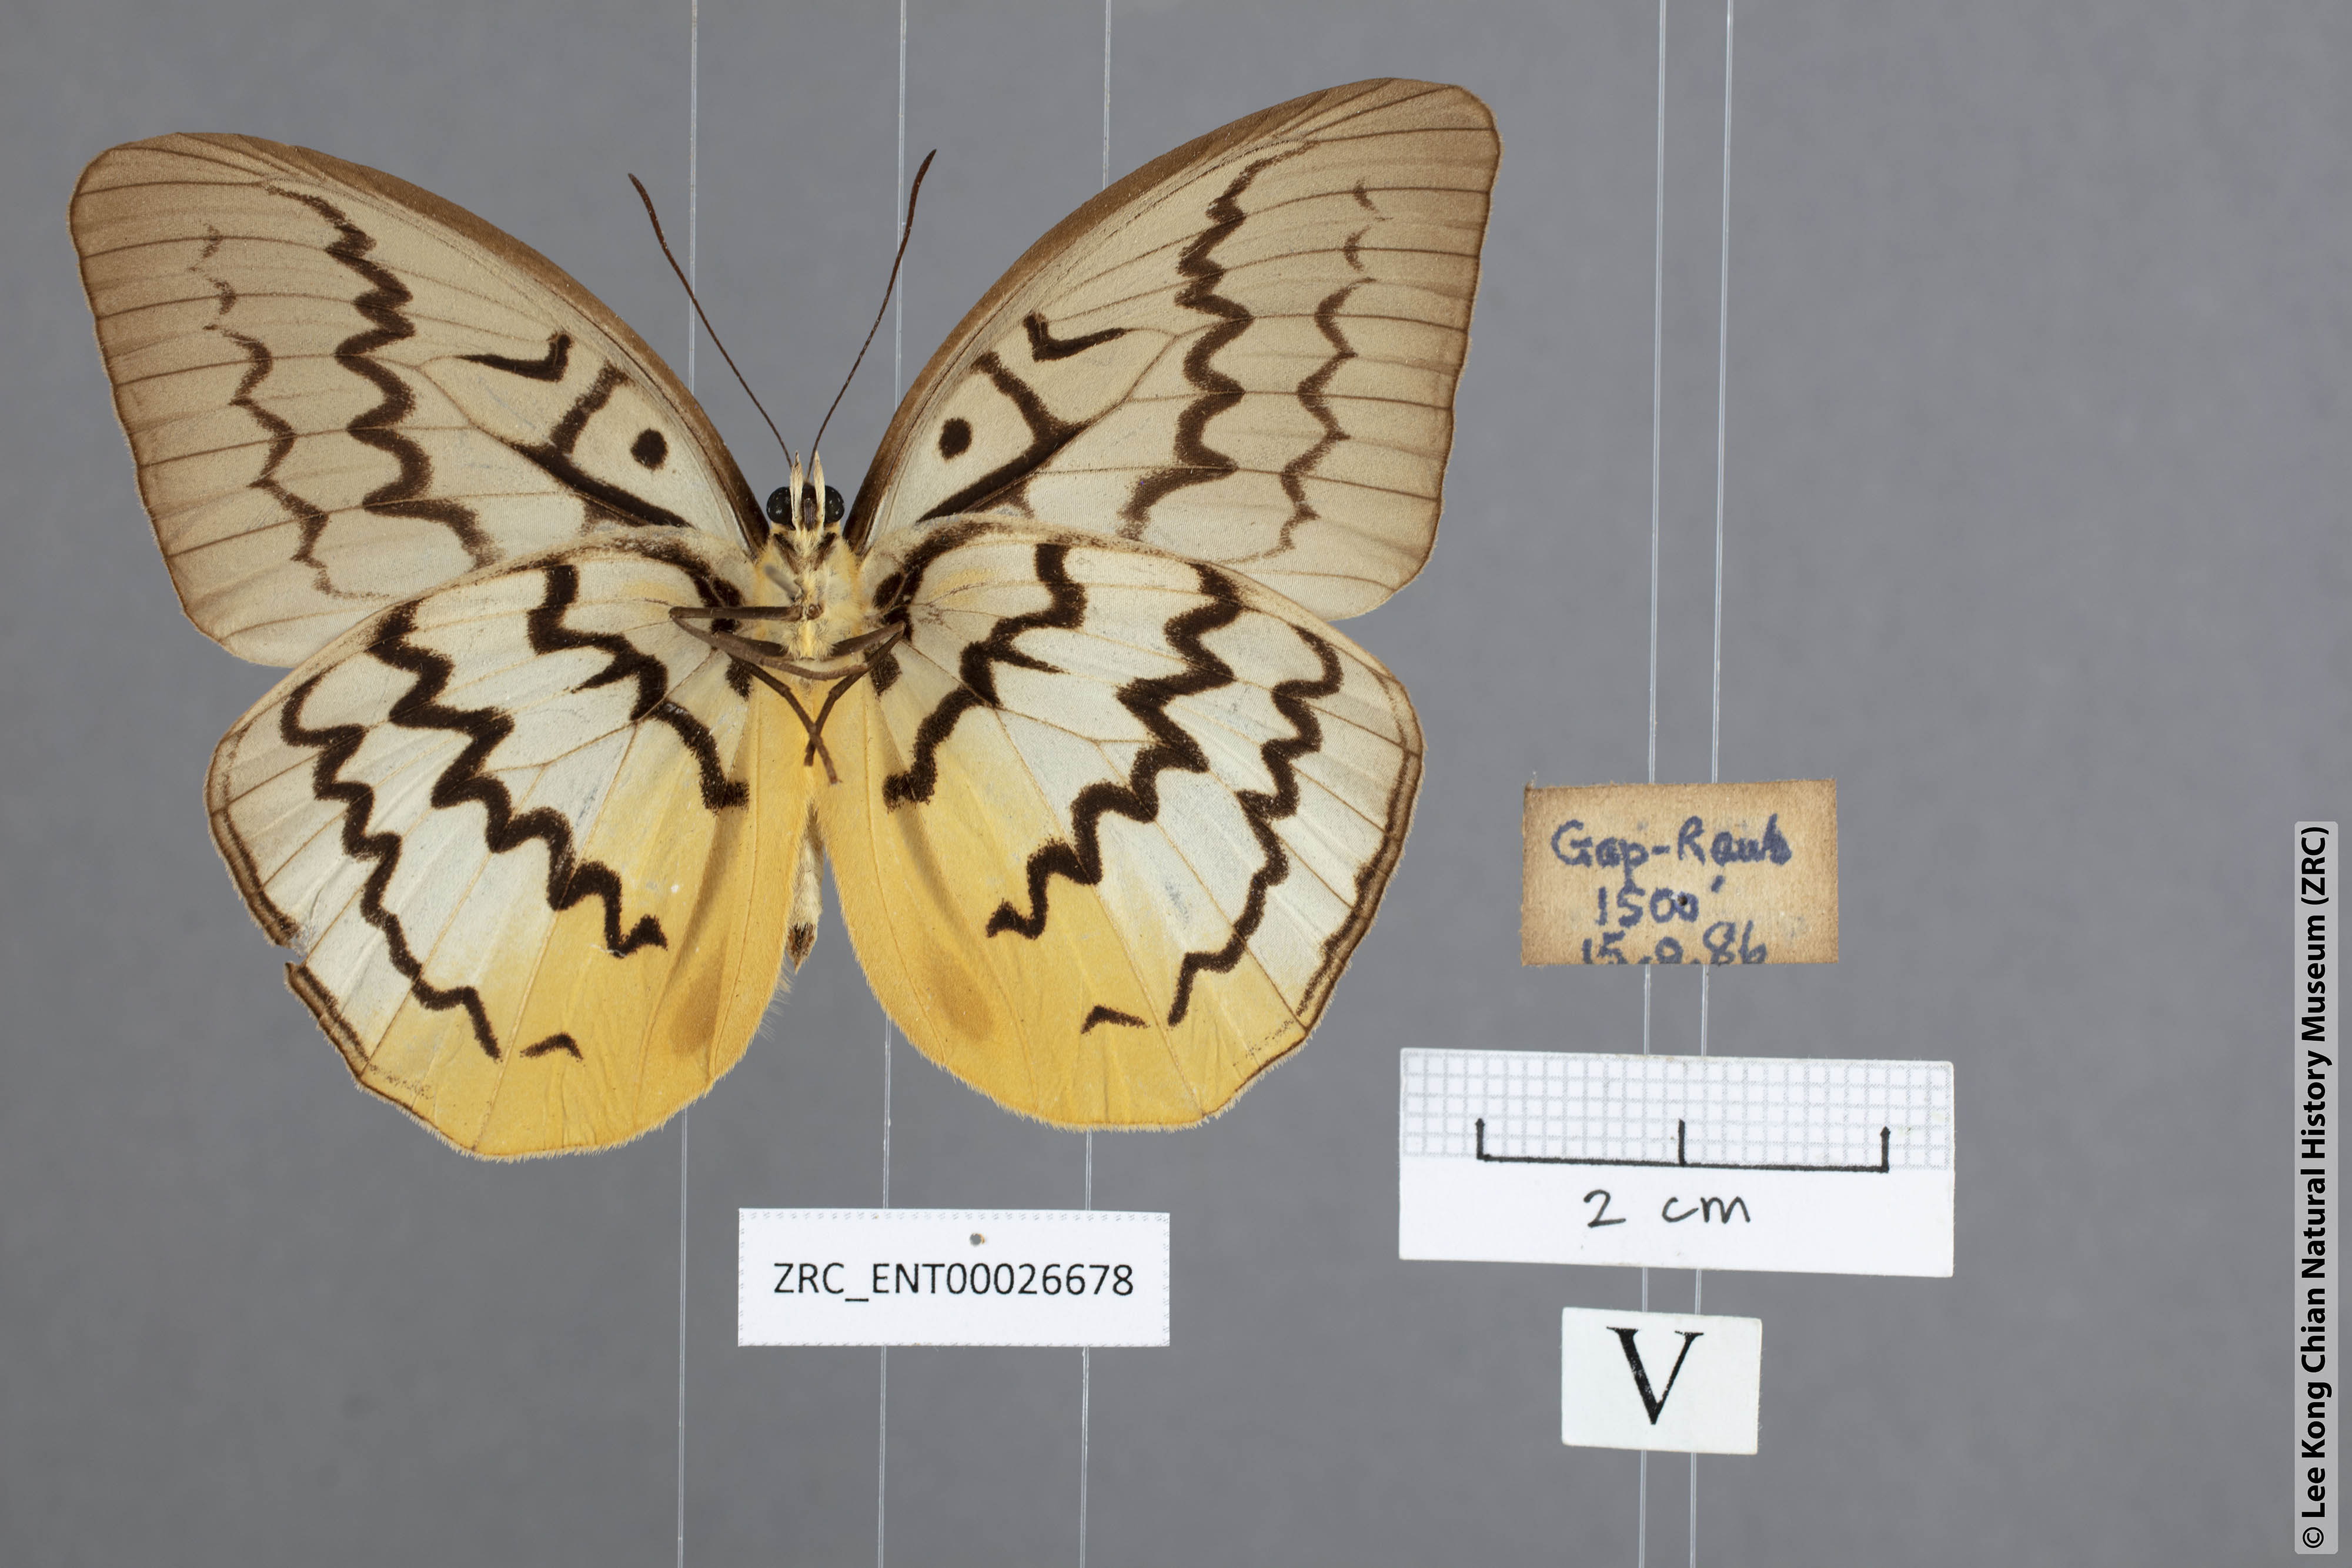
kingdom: Animalia
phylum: Arthropoda
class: Insecta
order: Lepidoptera
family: Nymphalidae
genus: Faunis
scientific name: Faunis Melanocyma faunula
